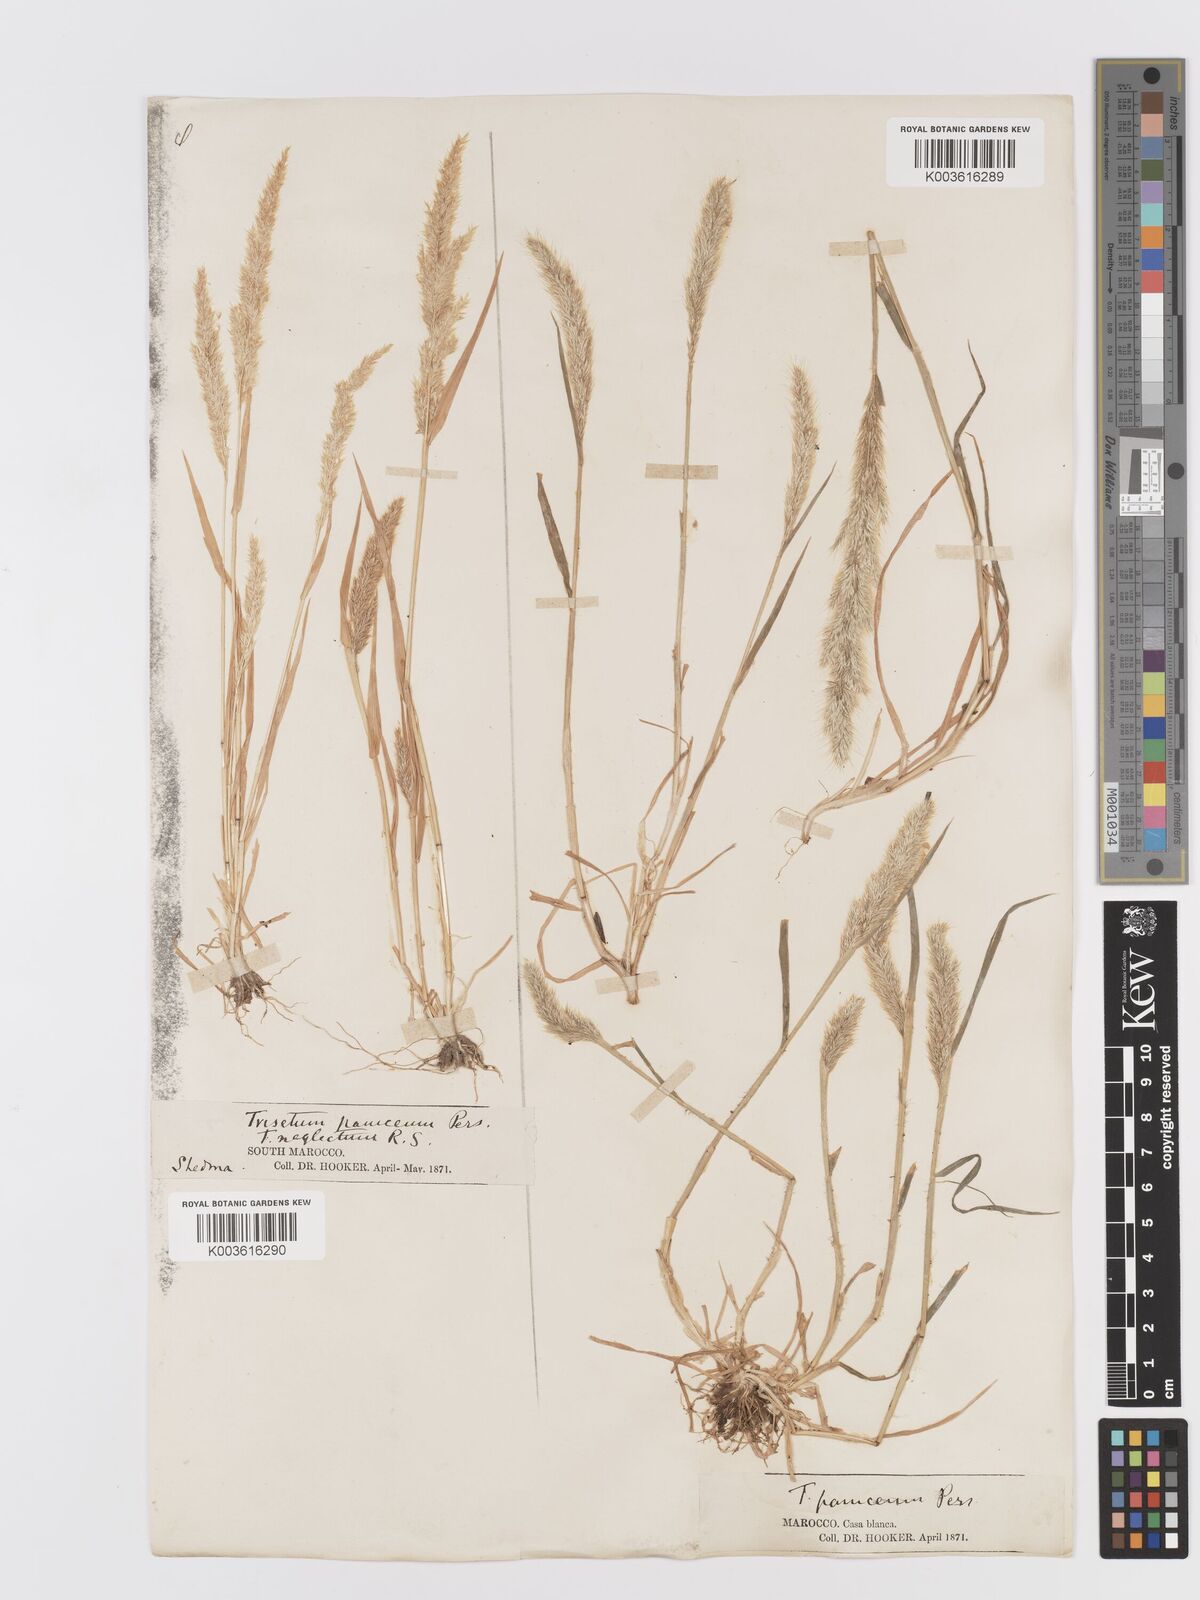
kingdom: Plantae
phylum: Tracheophyta
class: Liliopsida
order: Poales
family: Poaceae
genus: Trisetaria
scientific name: Trisetaria panicea
